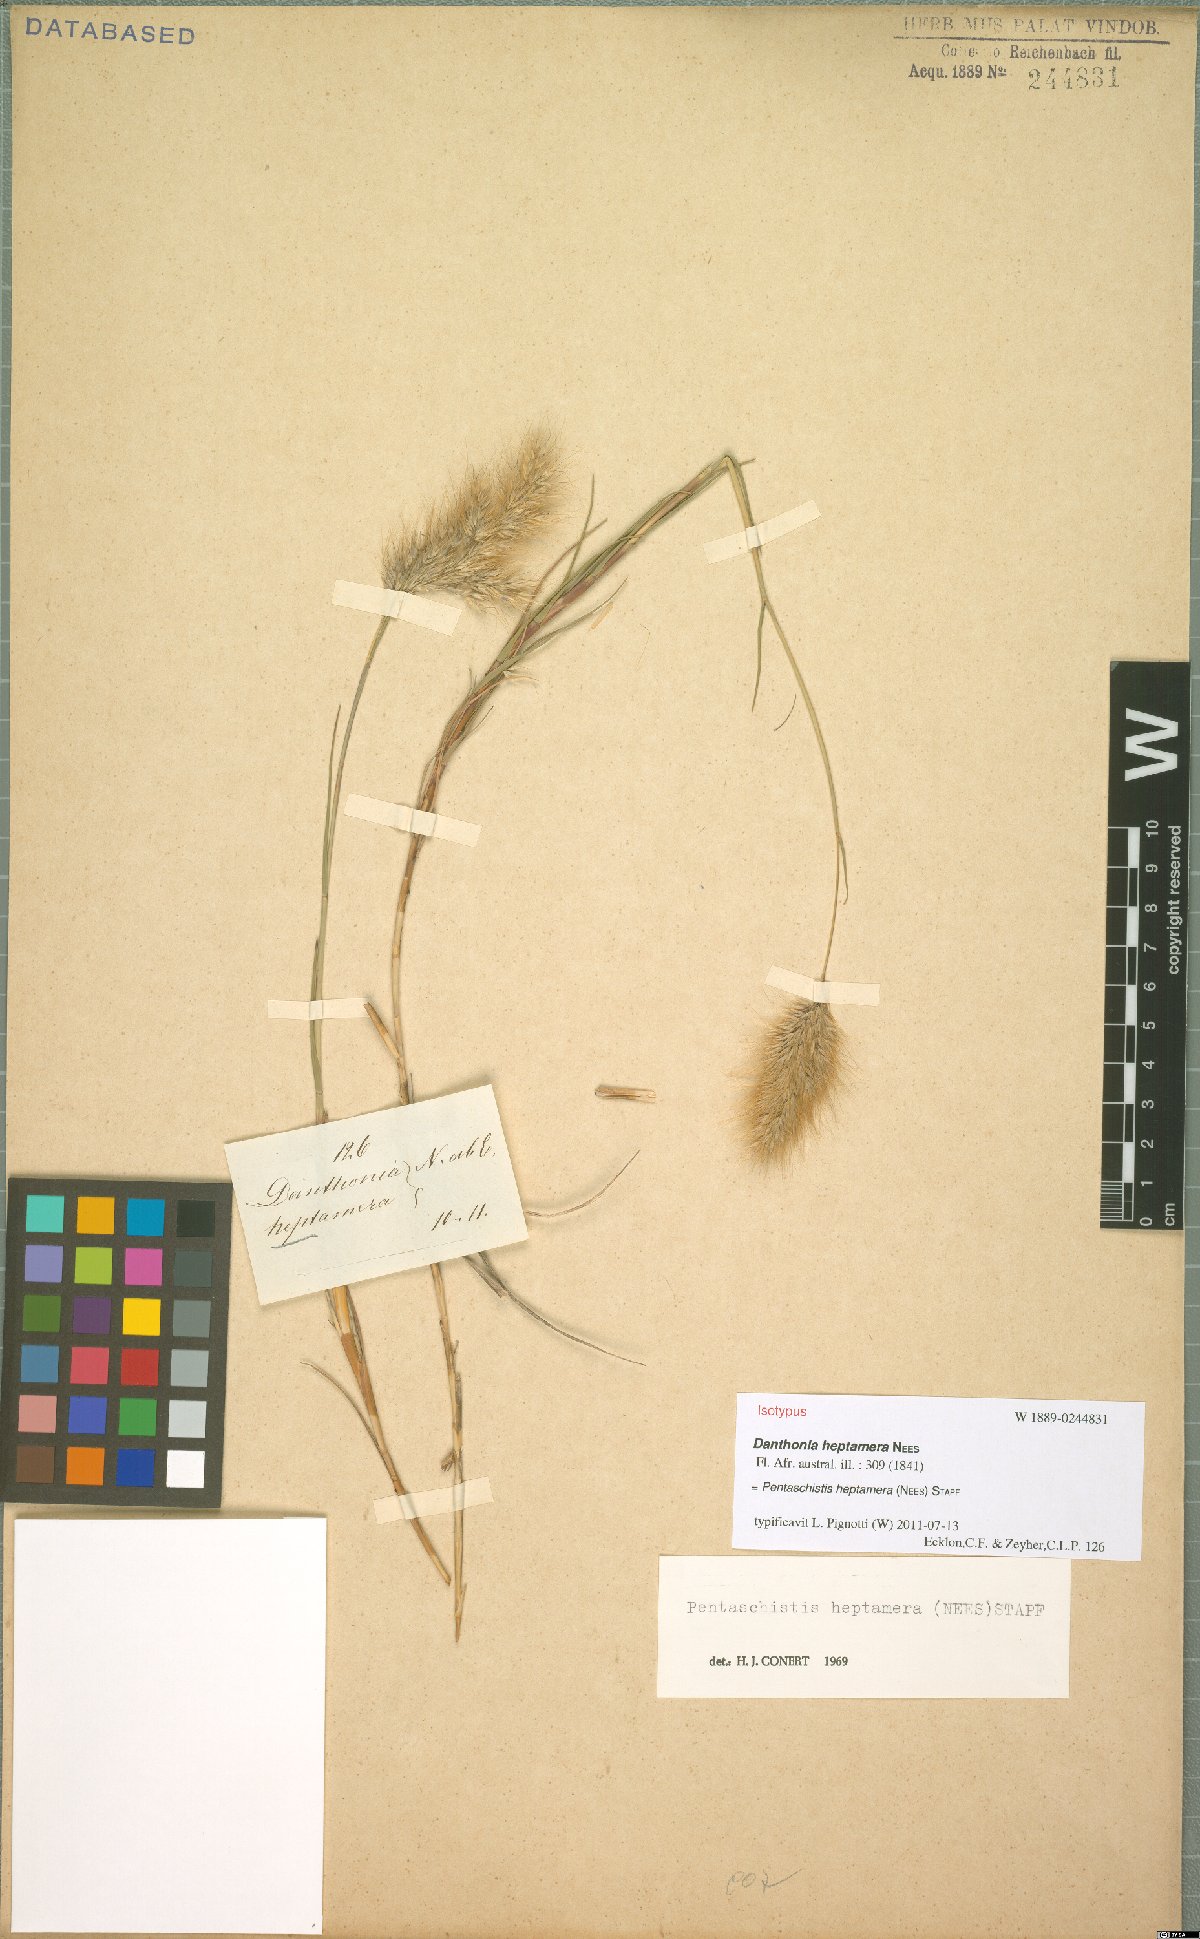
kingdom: Plantae
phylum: Tracheophyta
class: Liliopsida
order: Poales
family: Poaceae
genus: Pentameris
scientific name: Pentameris heptamera
